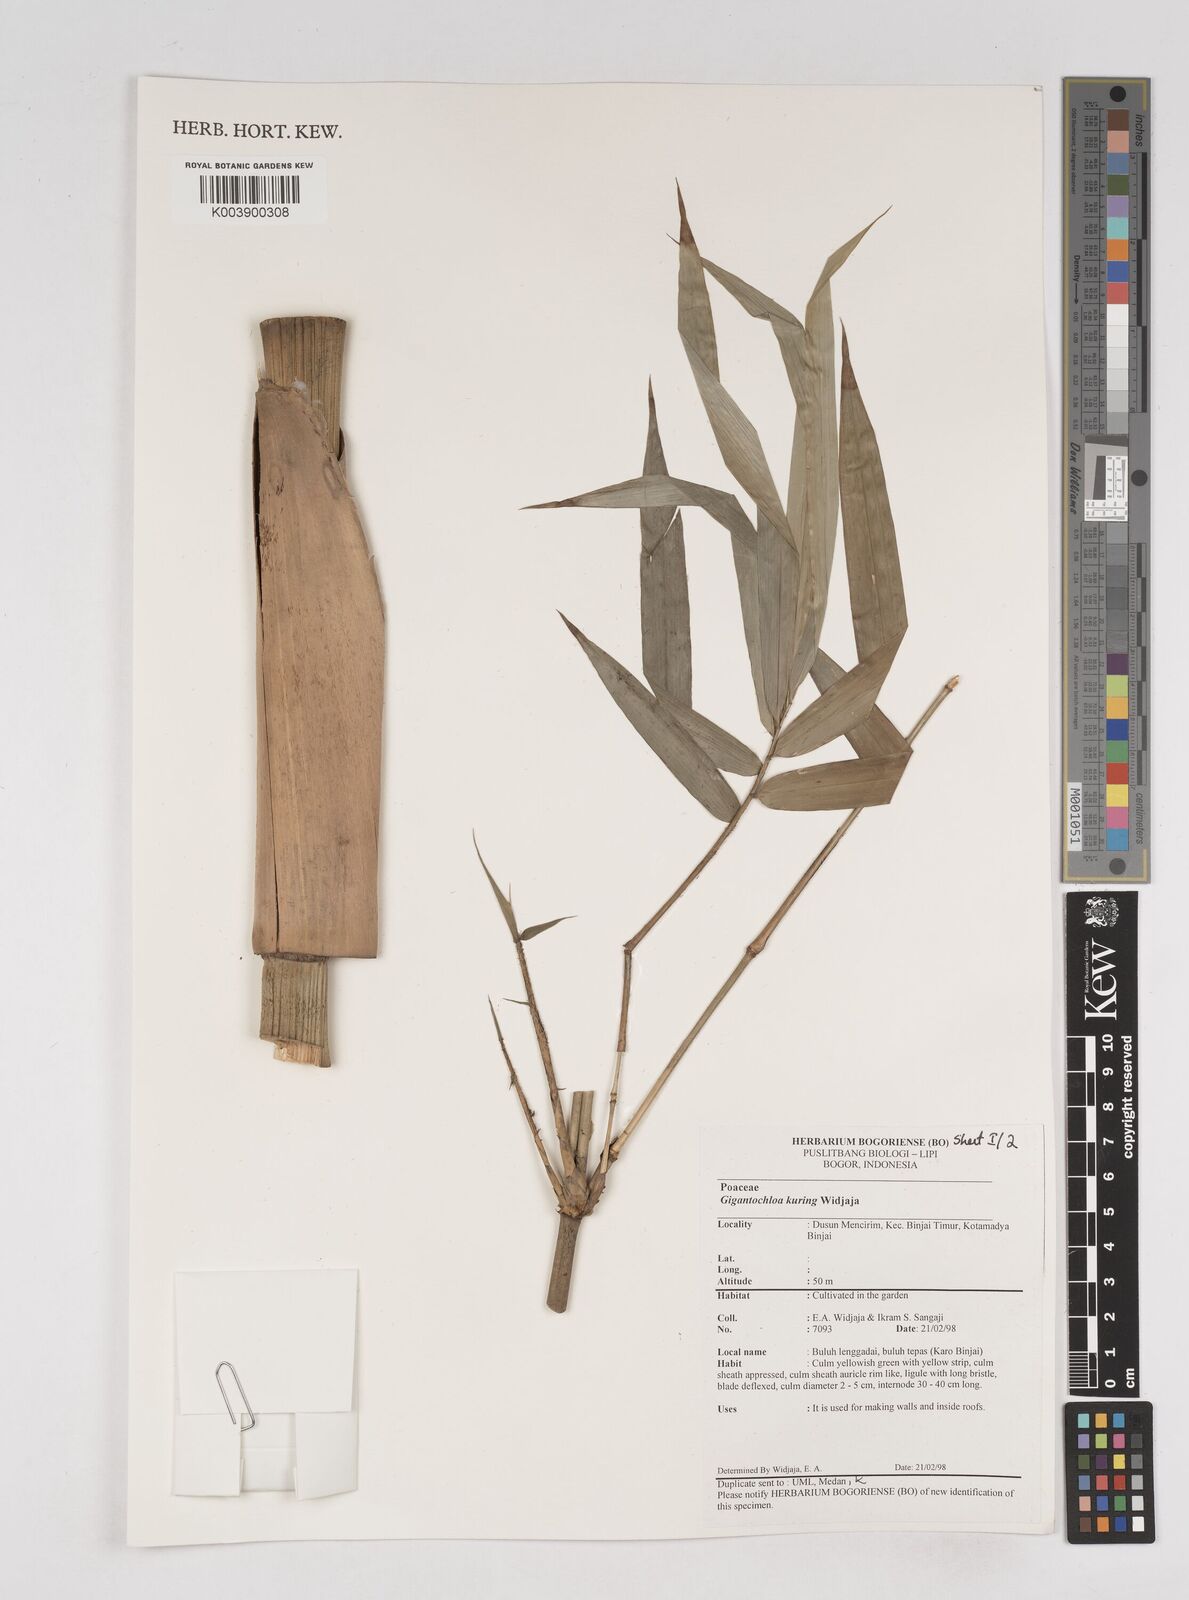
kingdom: Plantae
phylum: Tracheophyta
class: Liliopsida
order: Poales
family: Poaceae
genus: Gigantochloa
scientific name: Gigantochloa kuring
